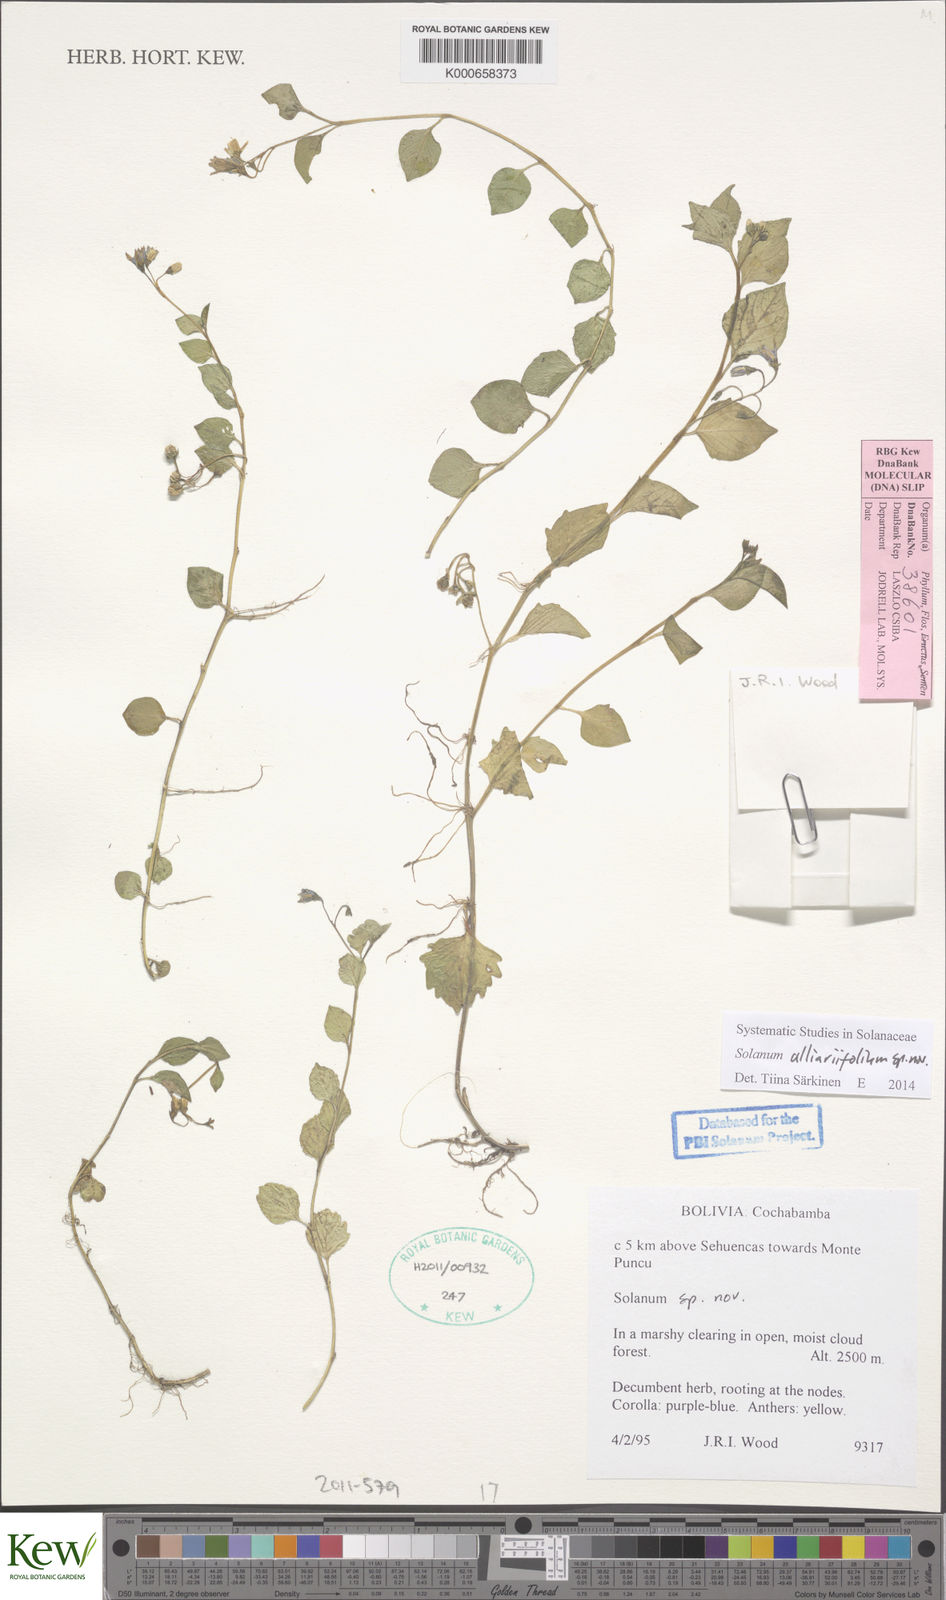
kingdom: Plantae
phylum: Tracheophyta
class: Magnoliopsida
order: Solanales
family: Solanaceae
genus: Solanum
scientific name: Solanum alliariifolium
